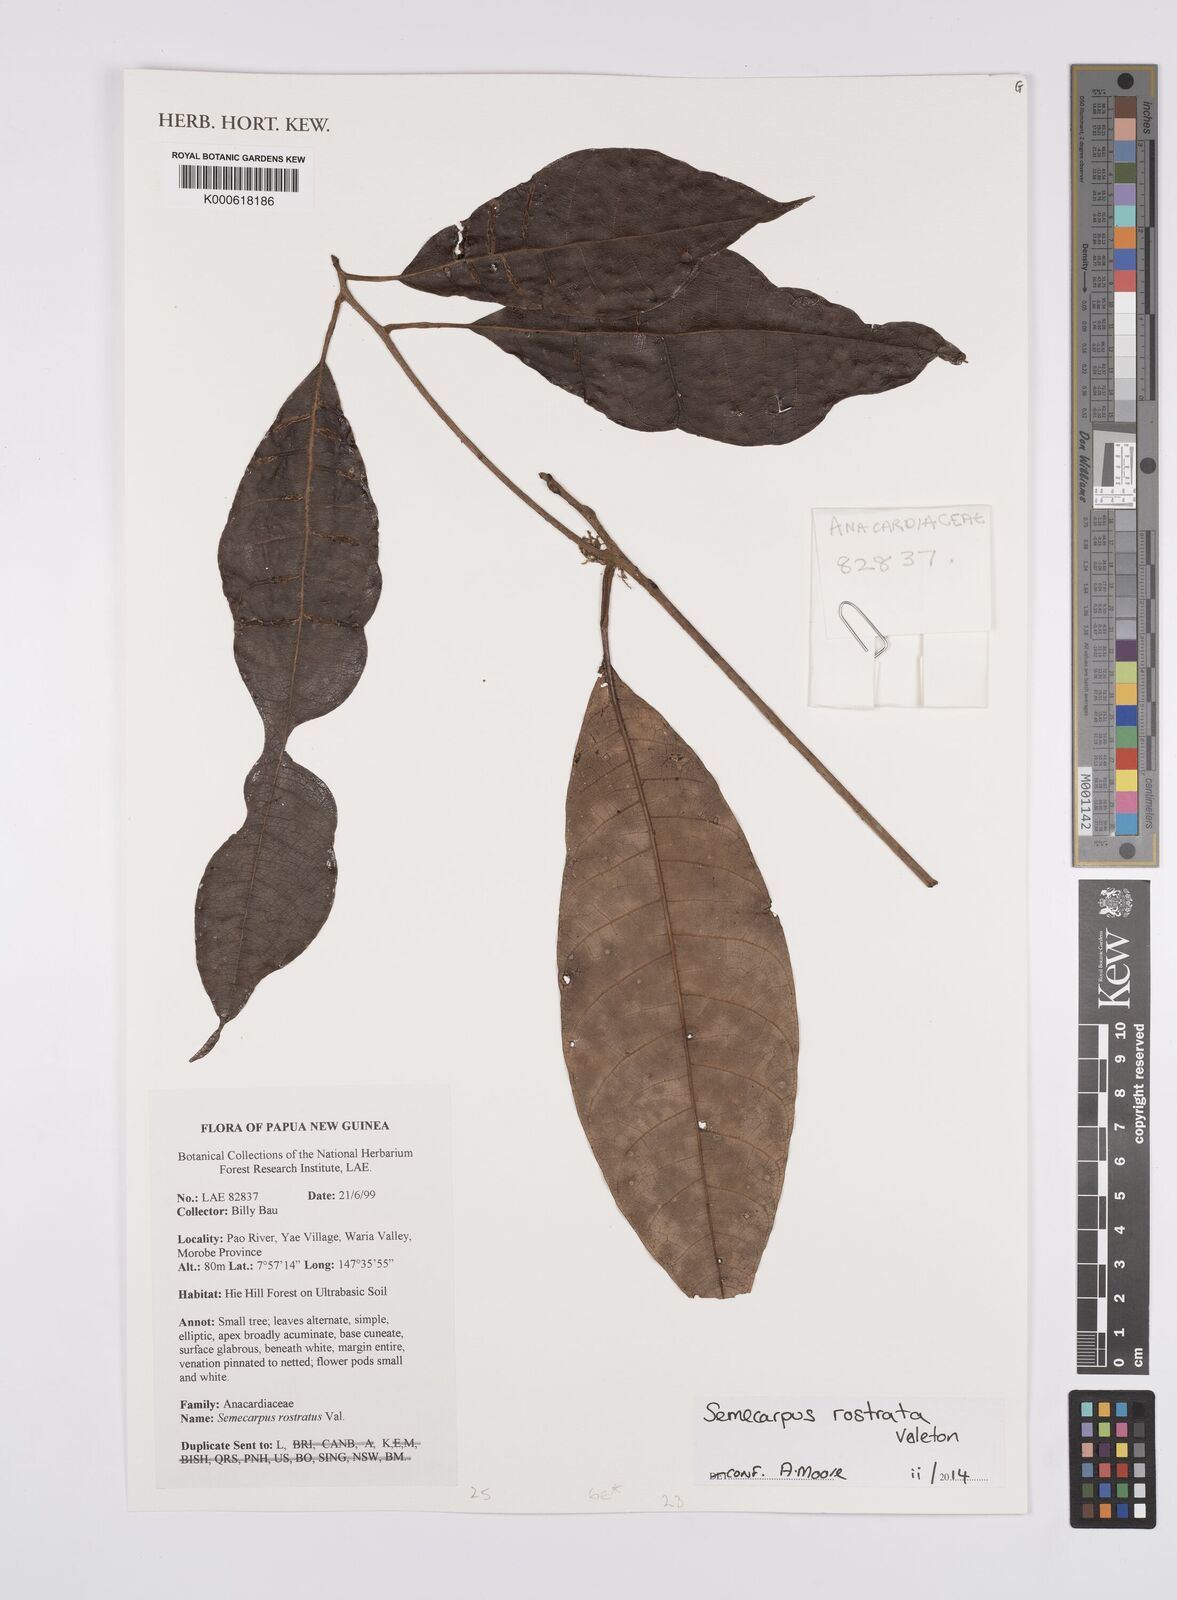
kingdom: Plantae
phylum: Tracheophyta
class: Magnoliopsida
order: Sapindales
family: Anacardiaceae
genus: Semecarpus
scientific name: Semecarpus rostratus
